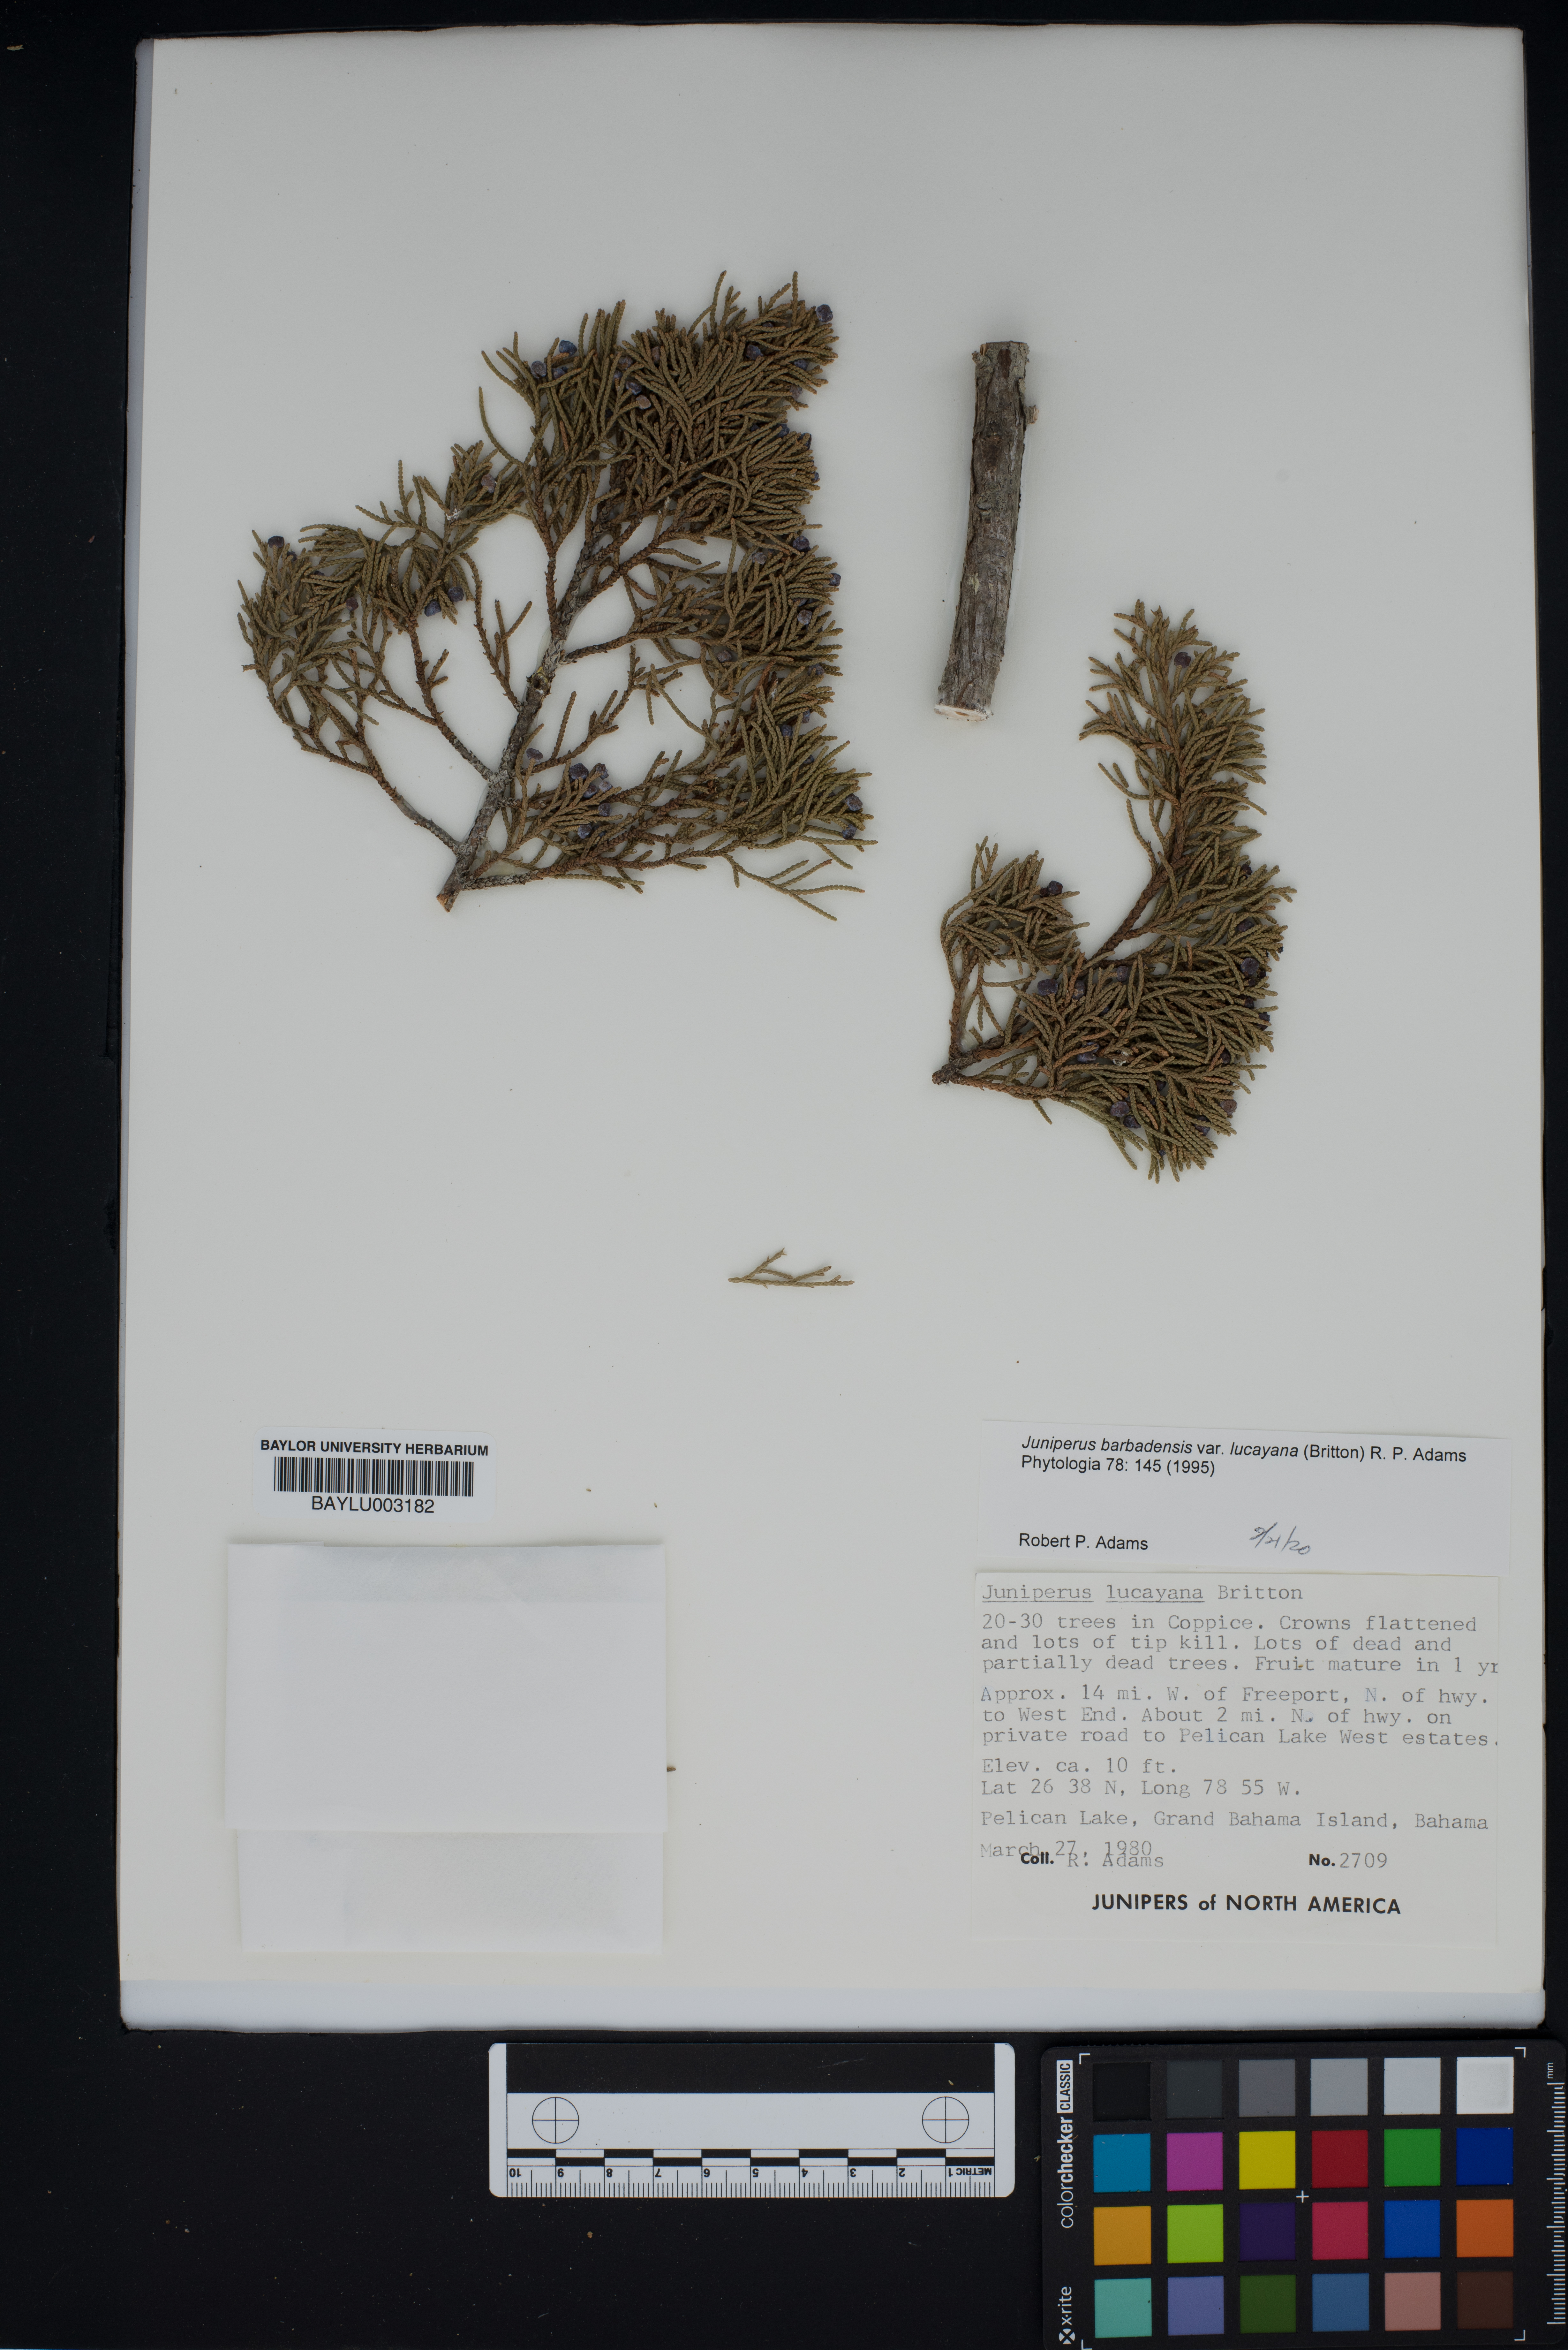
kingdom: Plantae
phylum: Tracheophyta
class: Pinopsida
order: Pinales
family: Cupressaceae
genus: Juniperus
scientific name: Juniperus barbadensis
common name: West indies juniper
